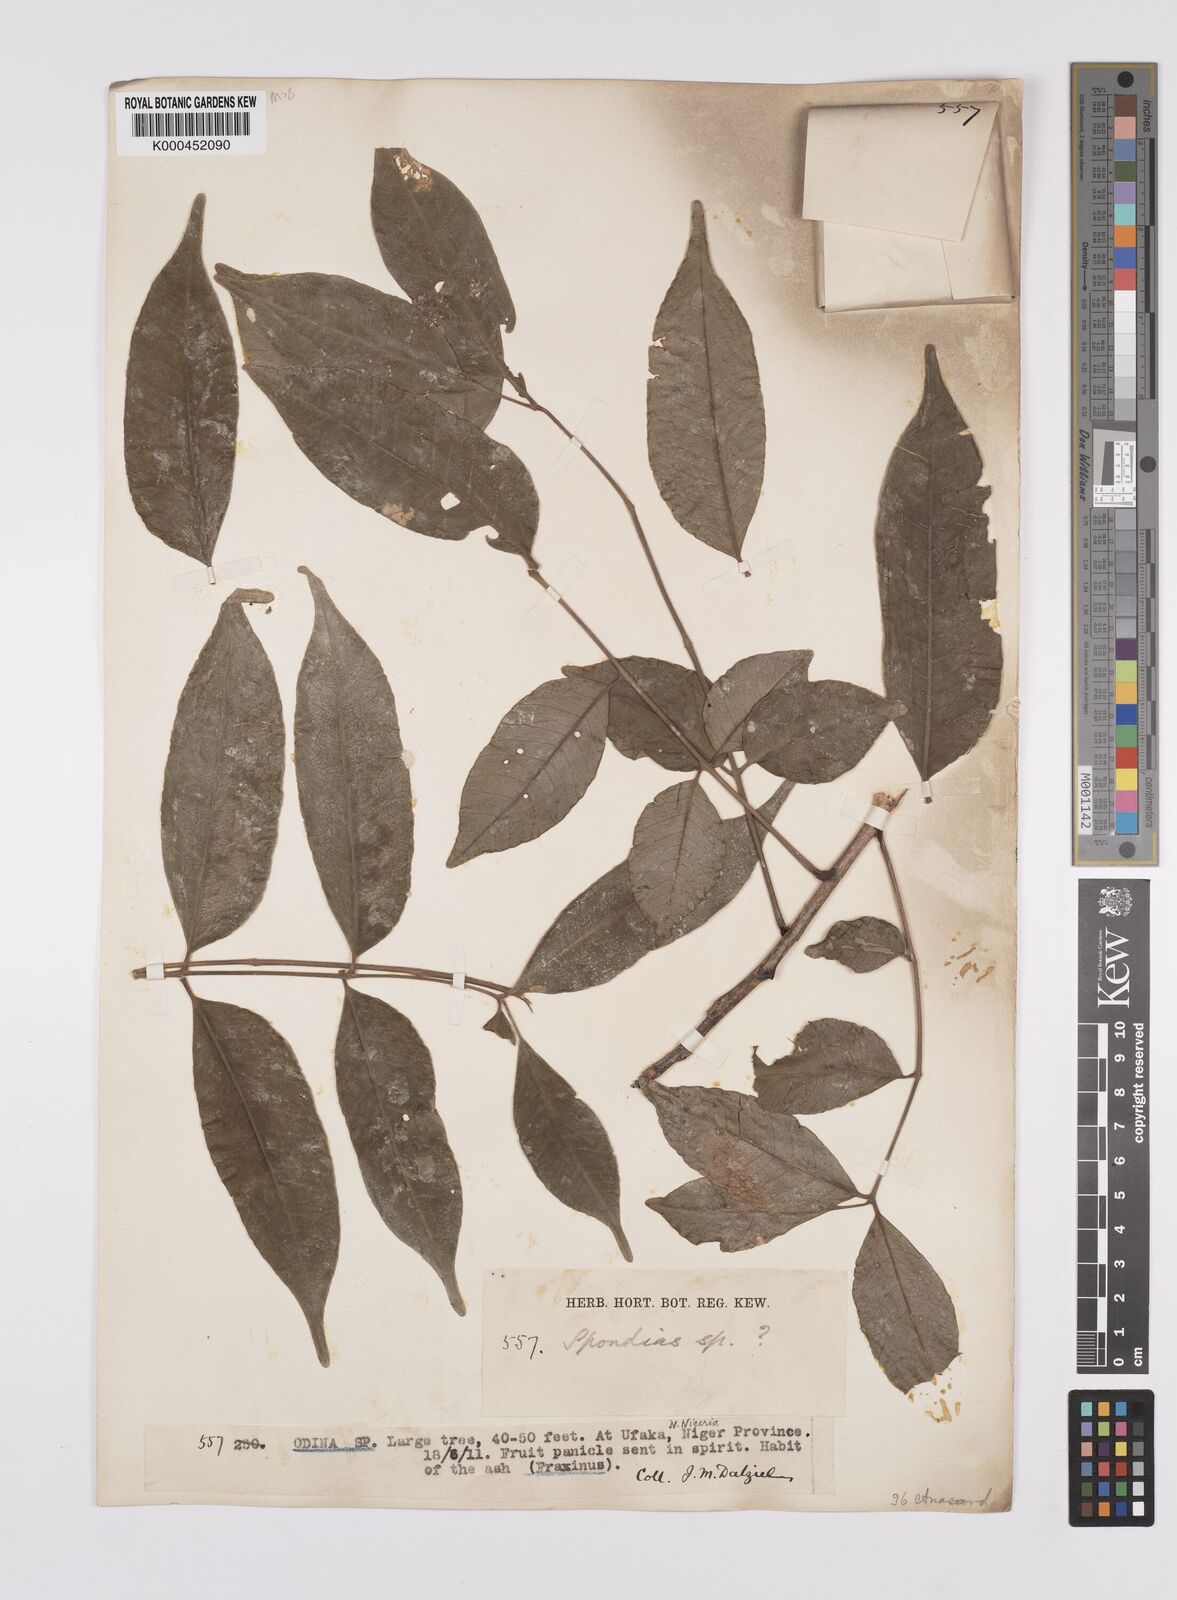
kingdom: Plantae
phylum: Tracheophyta
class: Magnoliopsida
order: Sapindales
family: Anacardiaceae
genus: Spondias
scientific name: Spondias mombin
